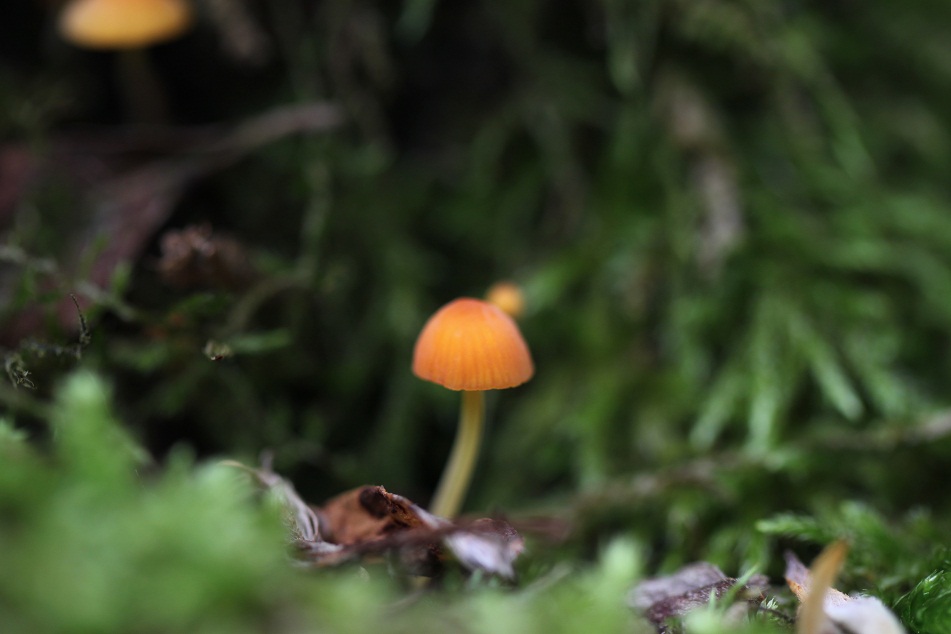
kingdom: Fungi
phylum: Basidiomycota
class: Agaricomycetes
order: Agaricales
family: Mycenaceae
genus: Mycena
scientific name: Mycena acicula
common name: orange huesvamp
